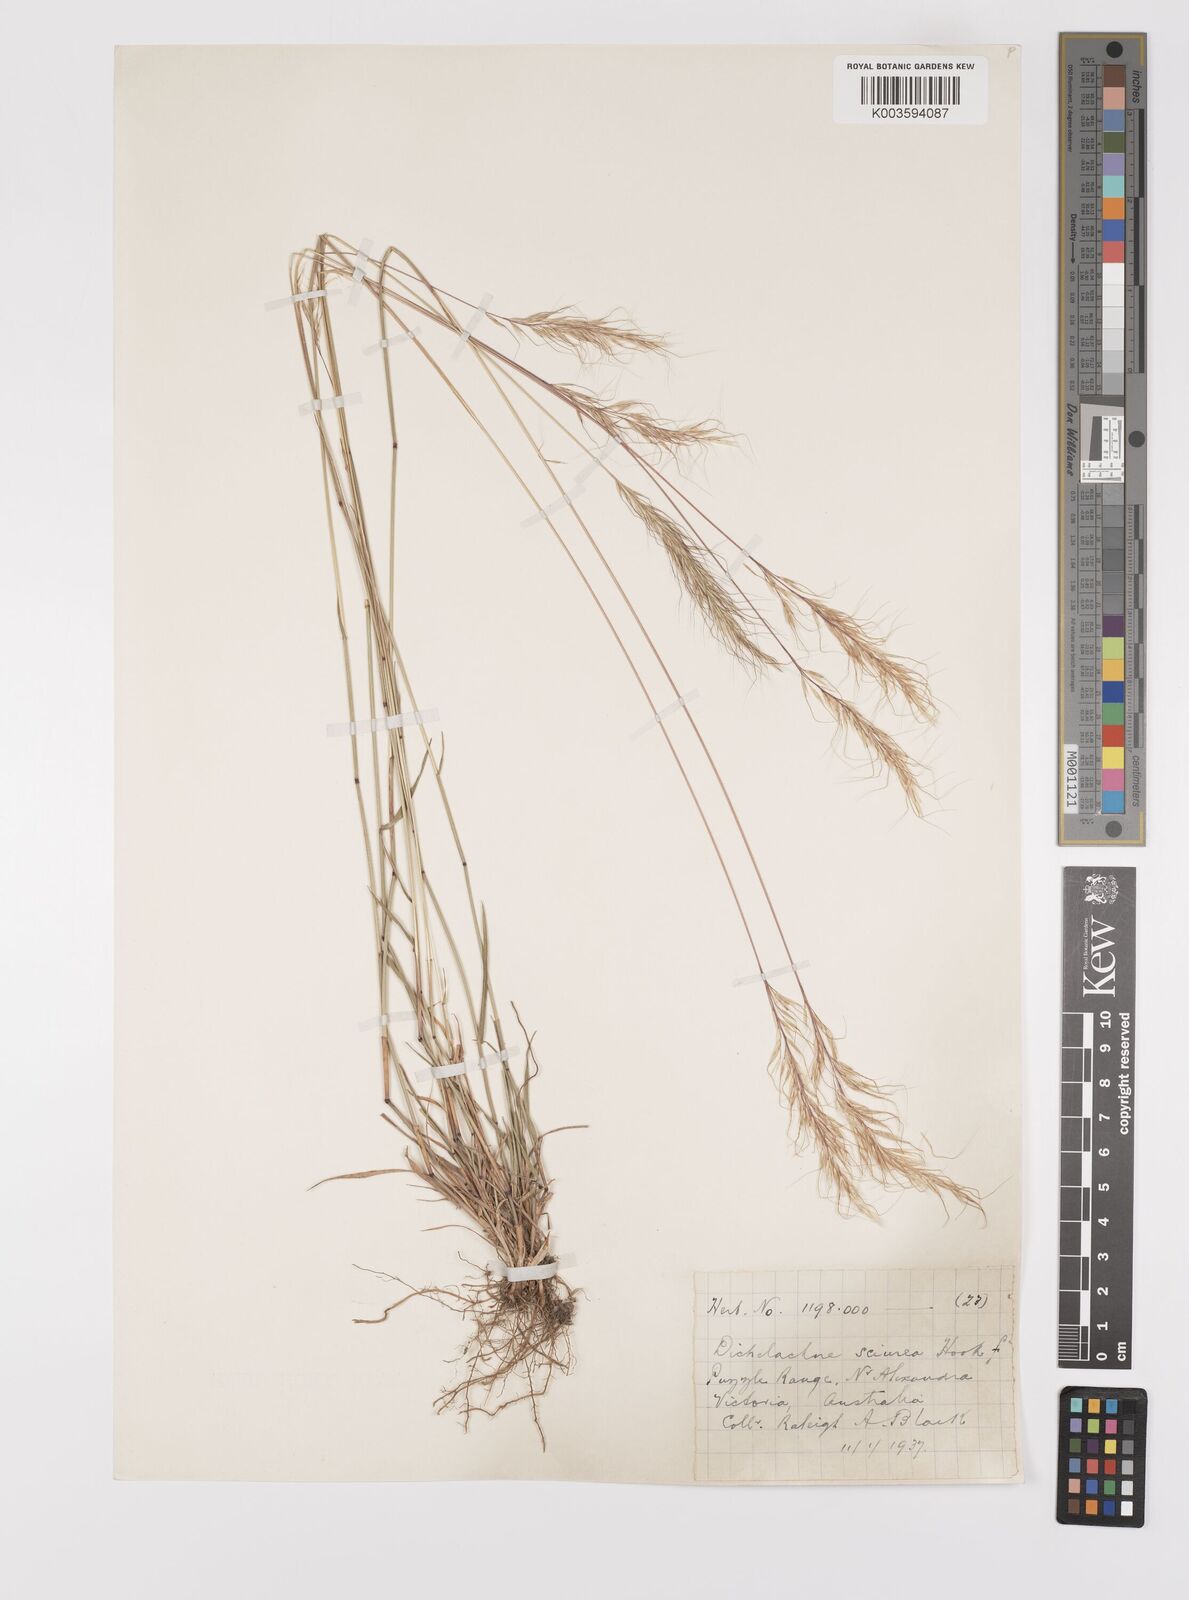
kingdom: Plantae
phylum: Tracheophyta
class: Liliopsida
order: Poales
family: Poaceae
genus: Dichelachne
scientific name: Dichelachne rara
